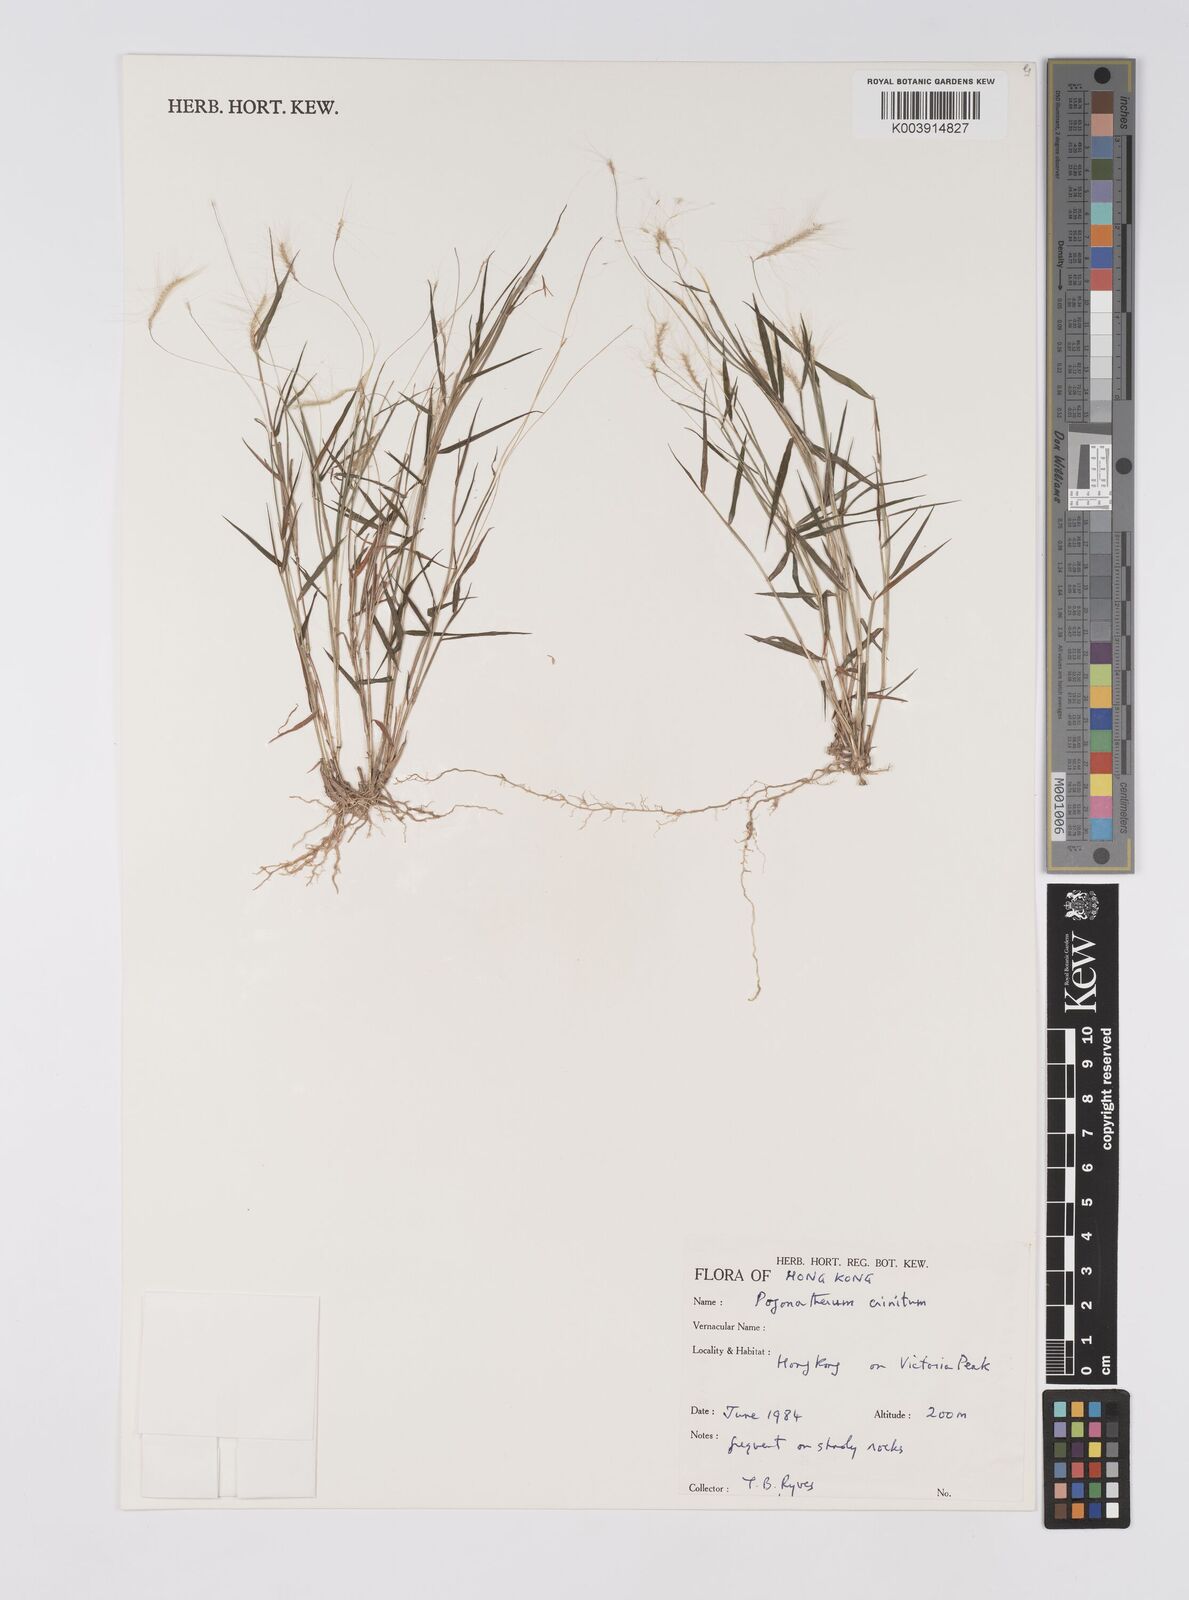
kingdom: Plantae
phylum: Tracheophyta
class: Liliopsida
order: Poales
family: Poaceae
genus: Pogonatherum
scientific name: Pogonatherum crinitum
